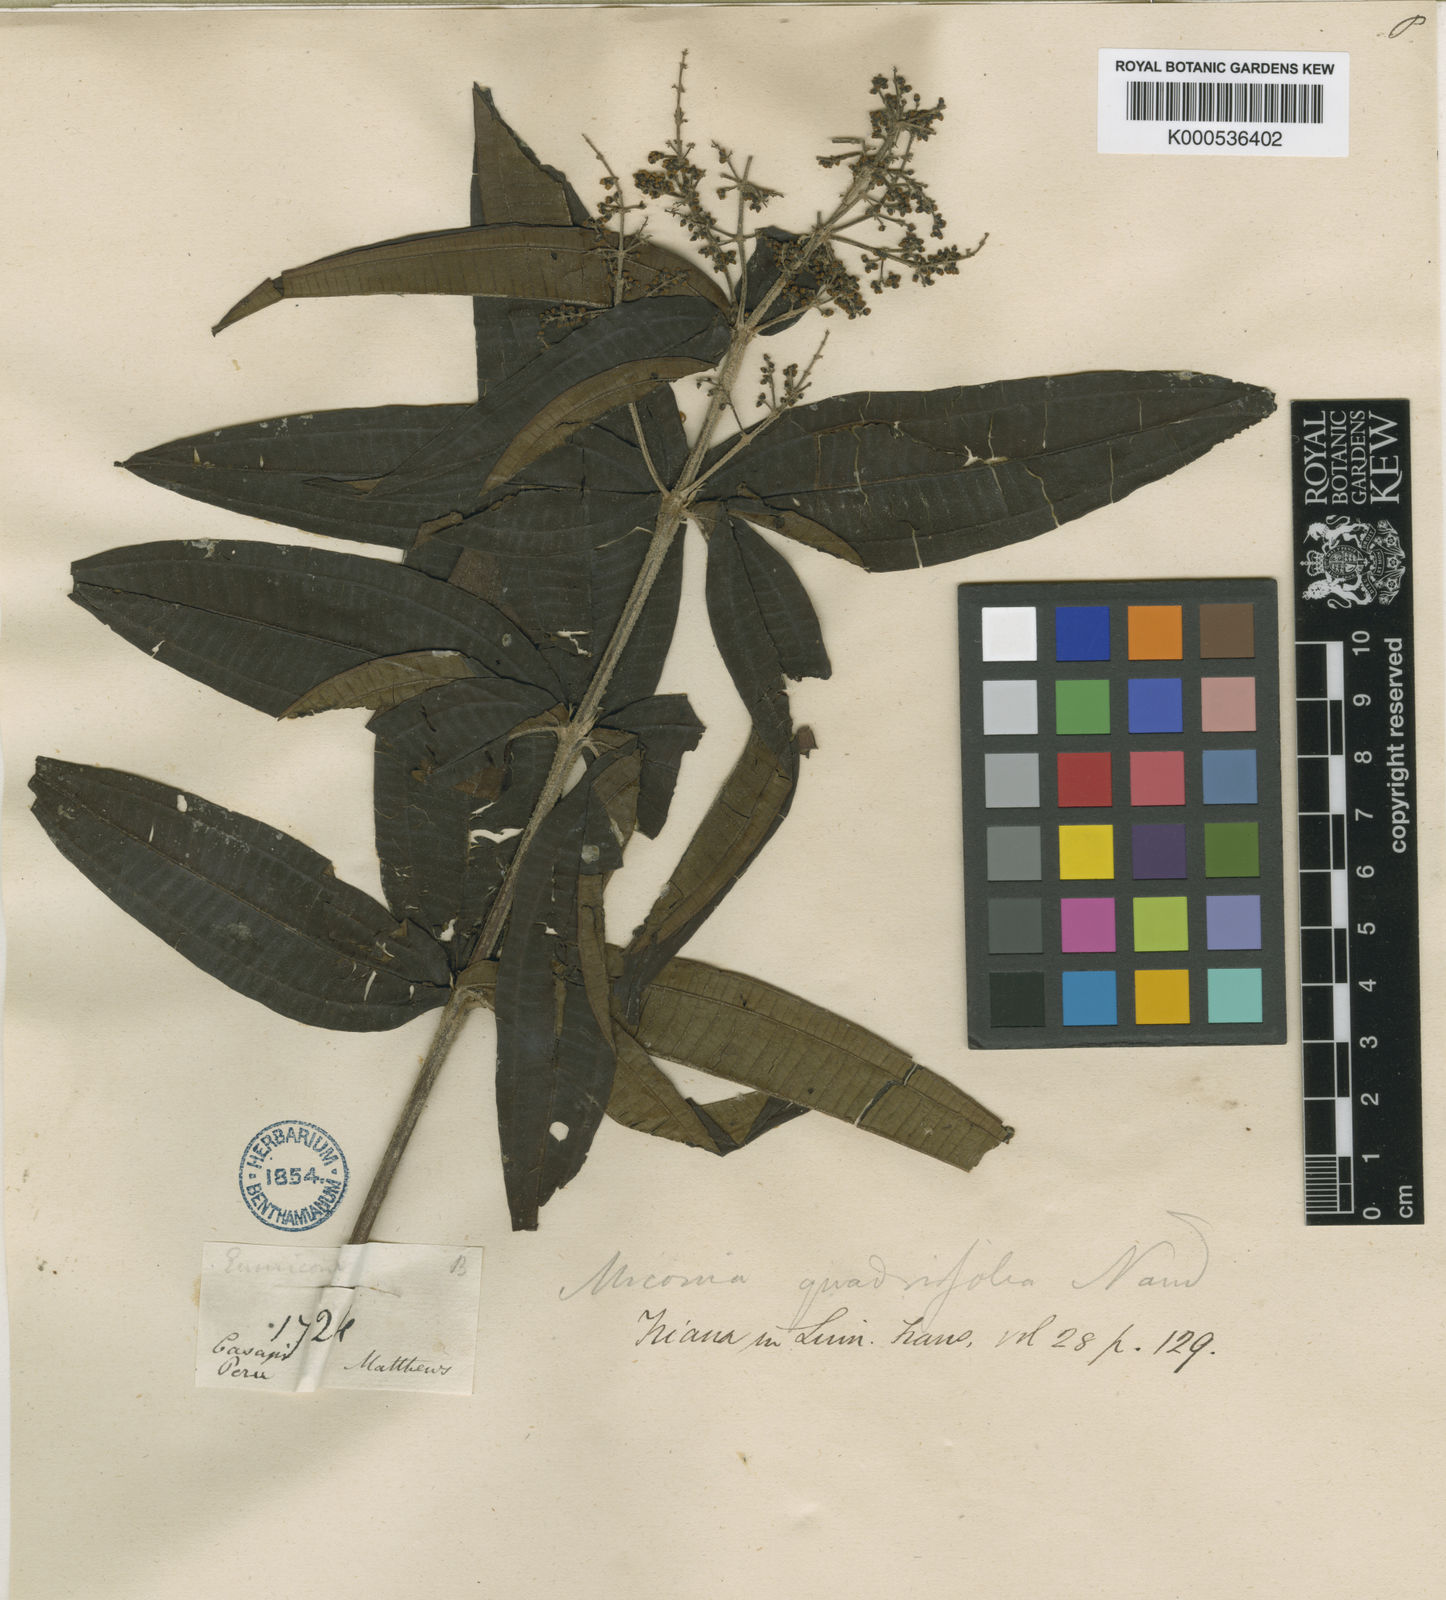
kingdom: Plantae
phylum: Tracheophyta
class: Magnoliopsida
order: Myrtales
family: Melastomataceae
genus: Miconia
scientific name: Miconia quadrifolia
